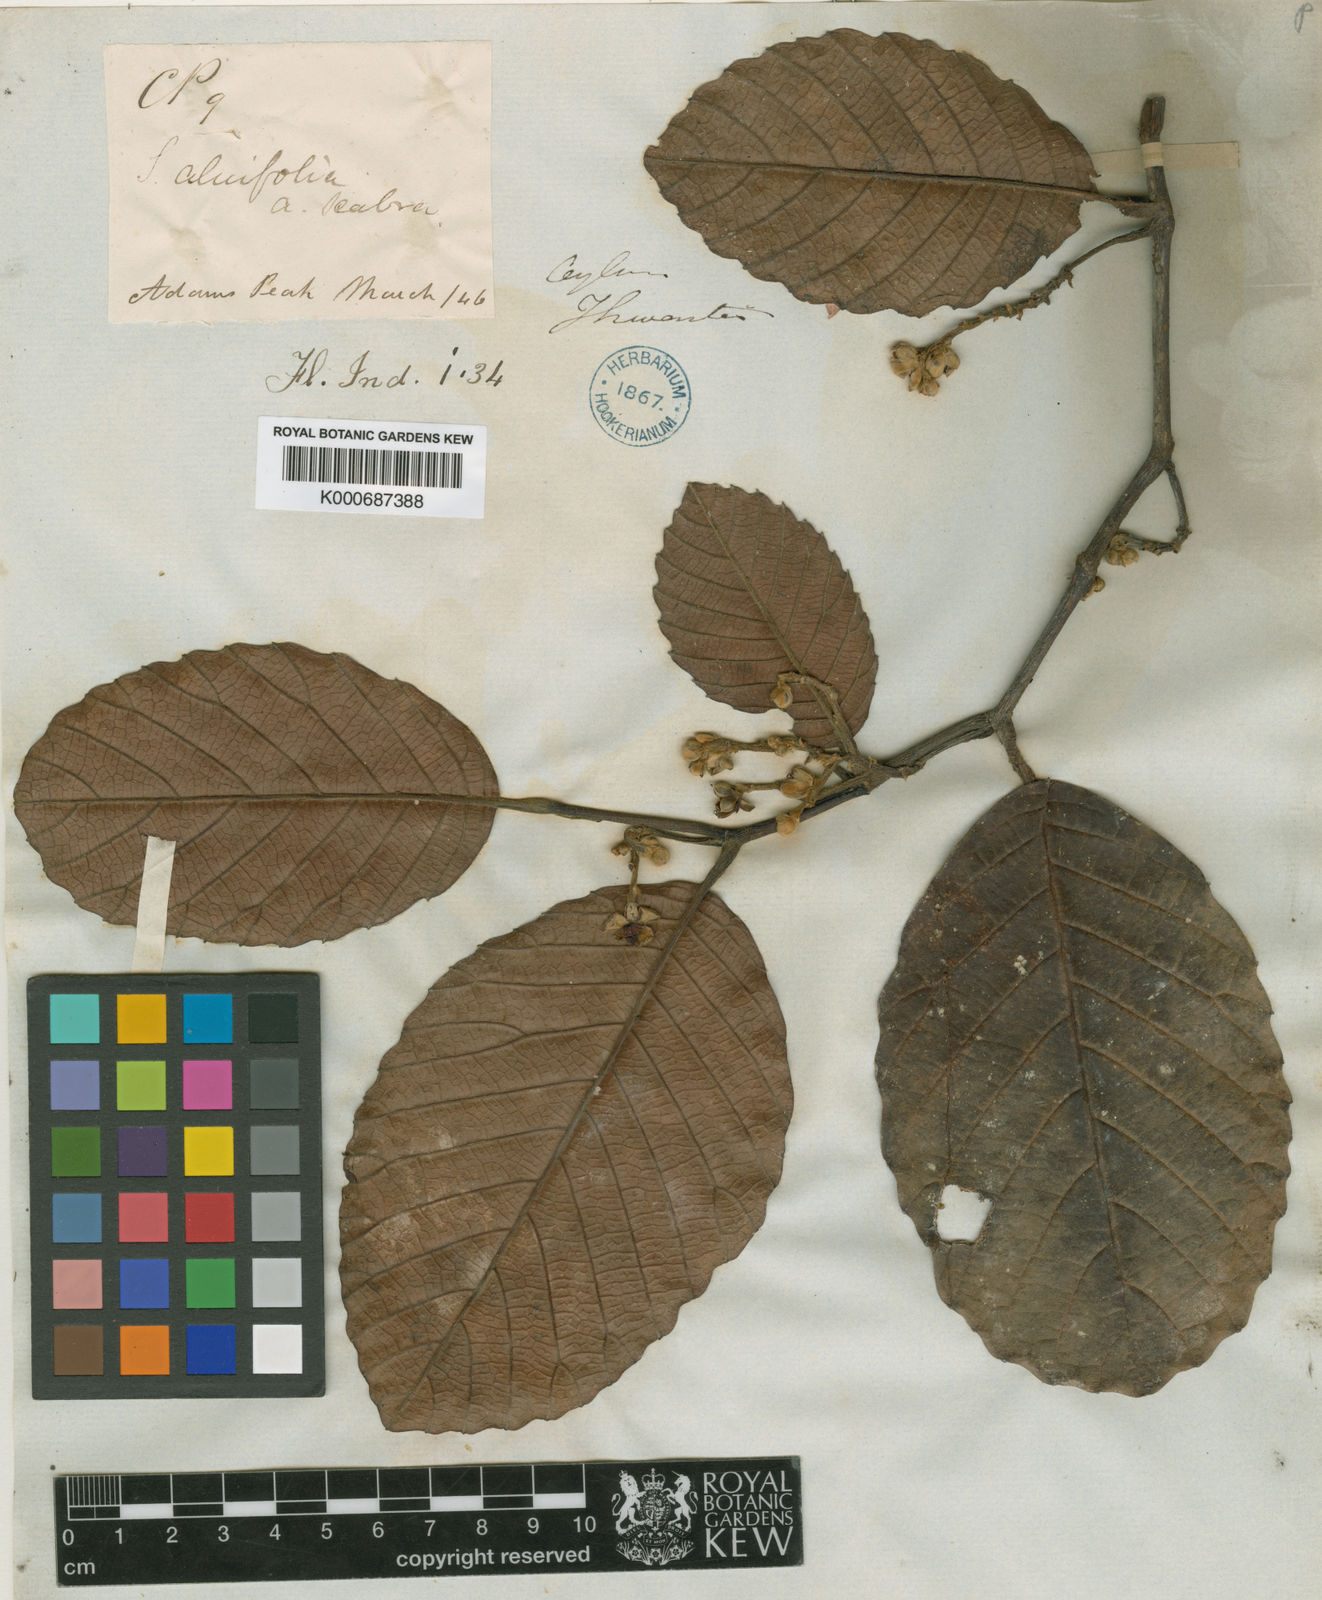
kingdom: Plantae
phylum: Tracheophyta
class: Magnoliopsida
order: Dilleniales
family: Dilleniaceae
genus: Schumacheria
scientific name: Schumacheria alnifolia
